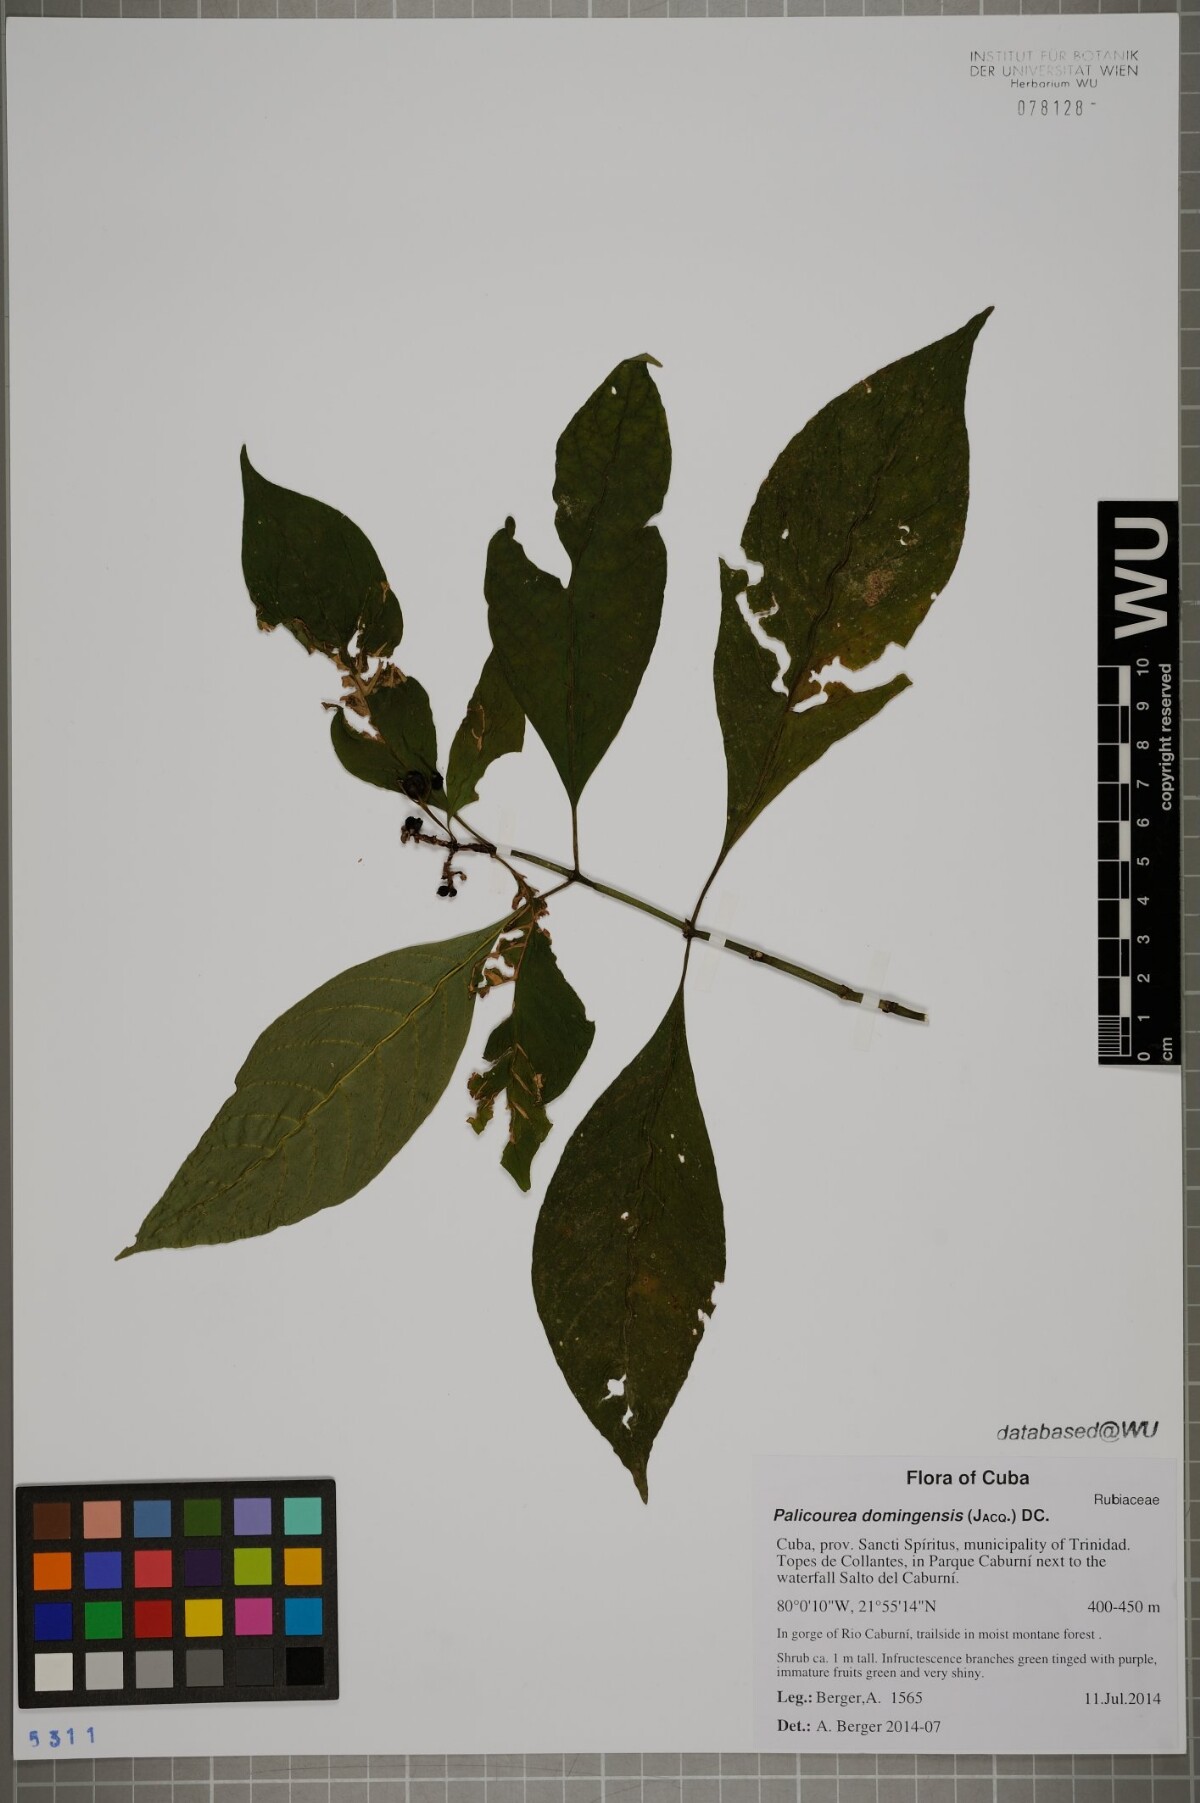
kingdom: Plantae
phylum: Tracheophyta
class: Magnoliopsida
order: Gentianales
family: Rubiaceae
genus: Palicourea
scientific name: Palicourea domingensis
